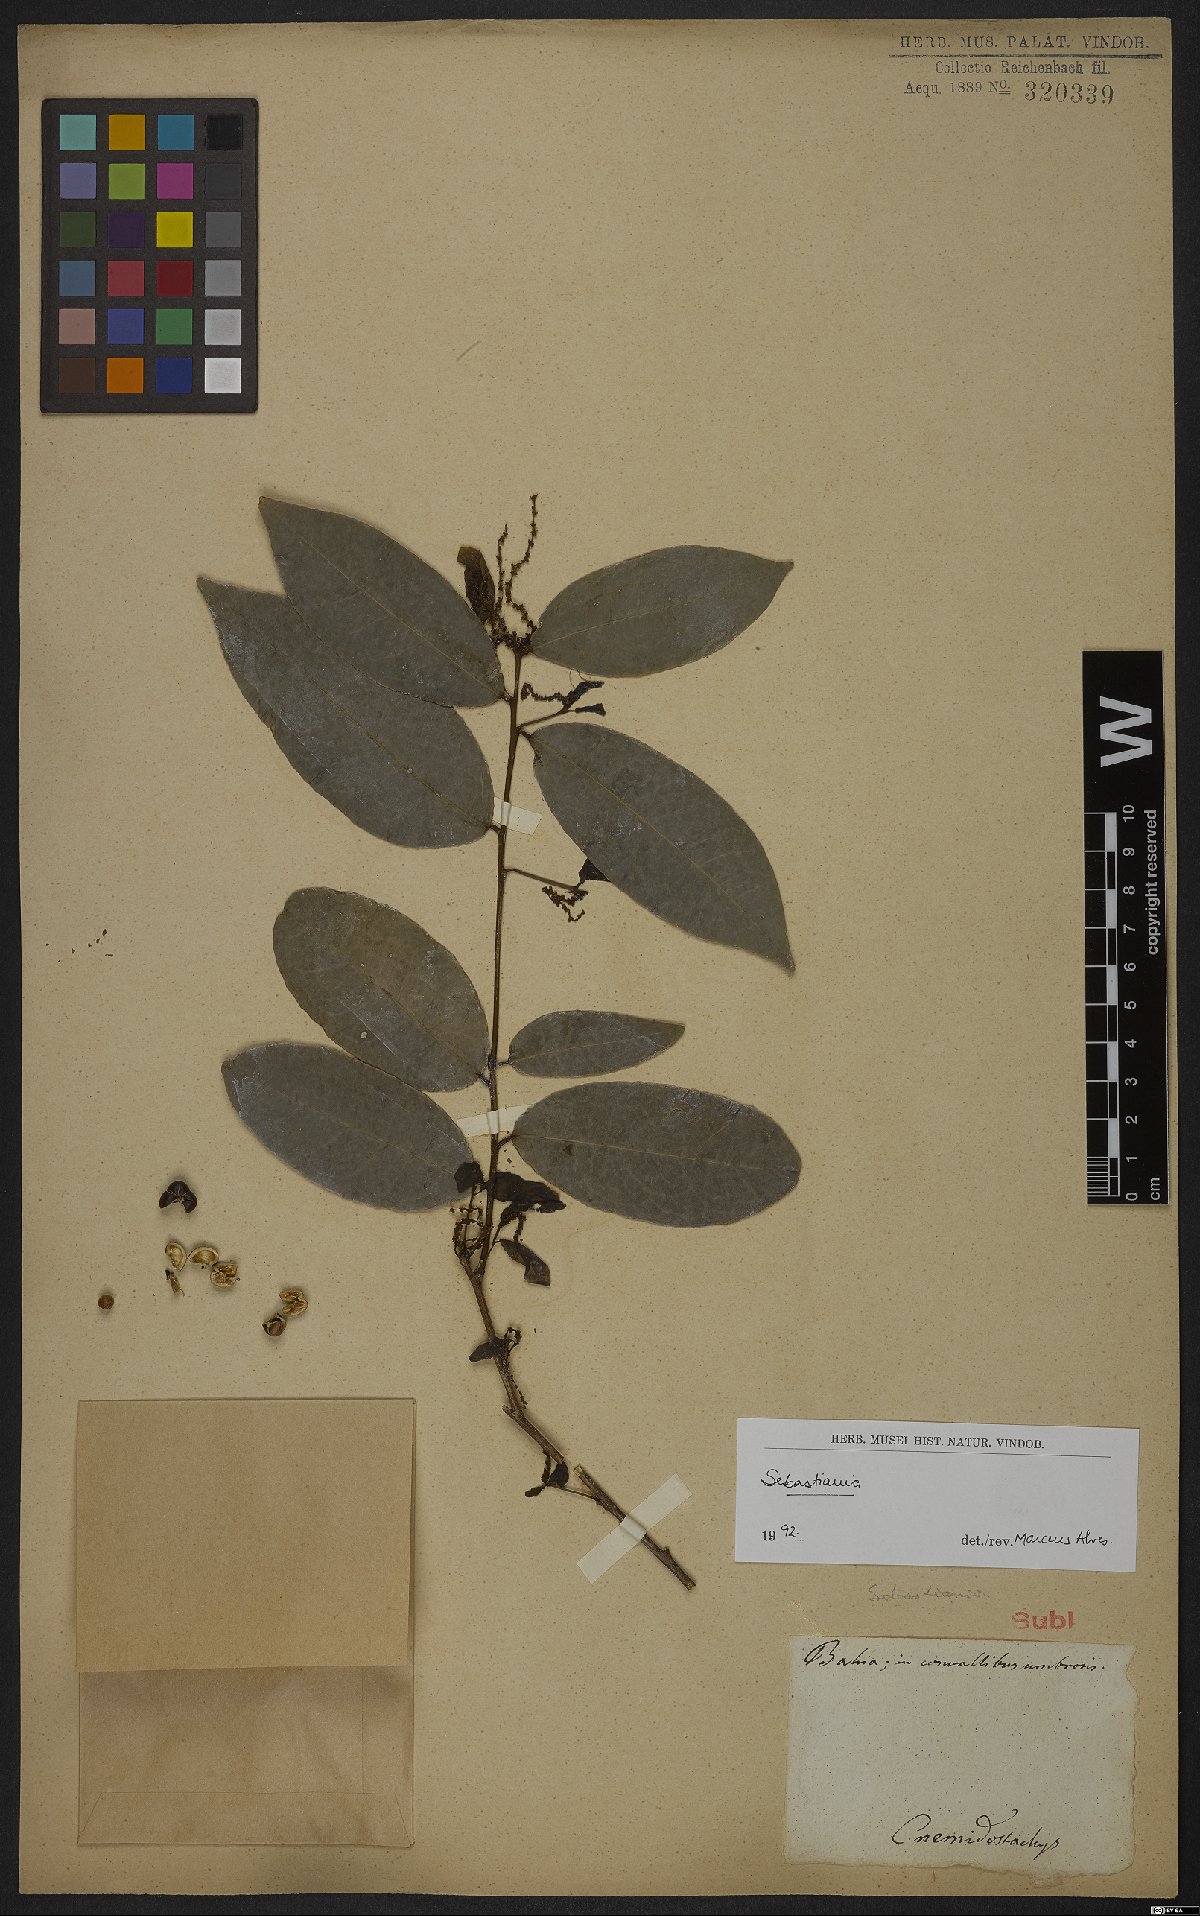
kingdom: Plantae
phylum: Tracheophyta
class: Magnoliopsida
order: Malpighiales
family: Euphorbiaceae
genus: Sebastiania
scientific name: Sebastiania
